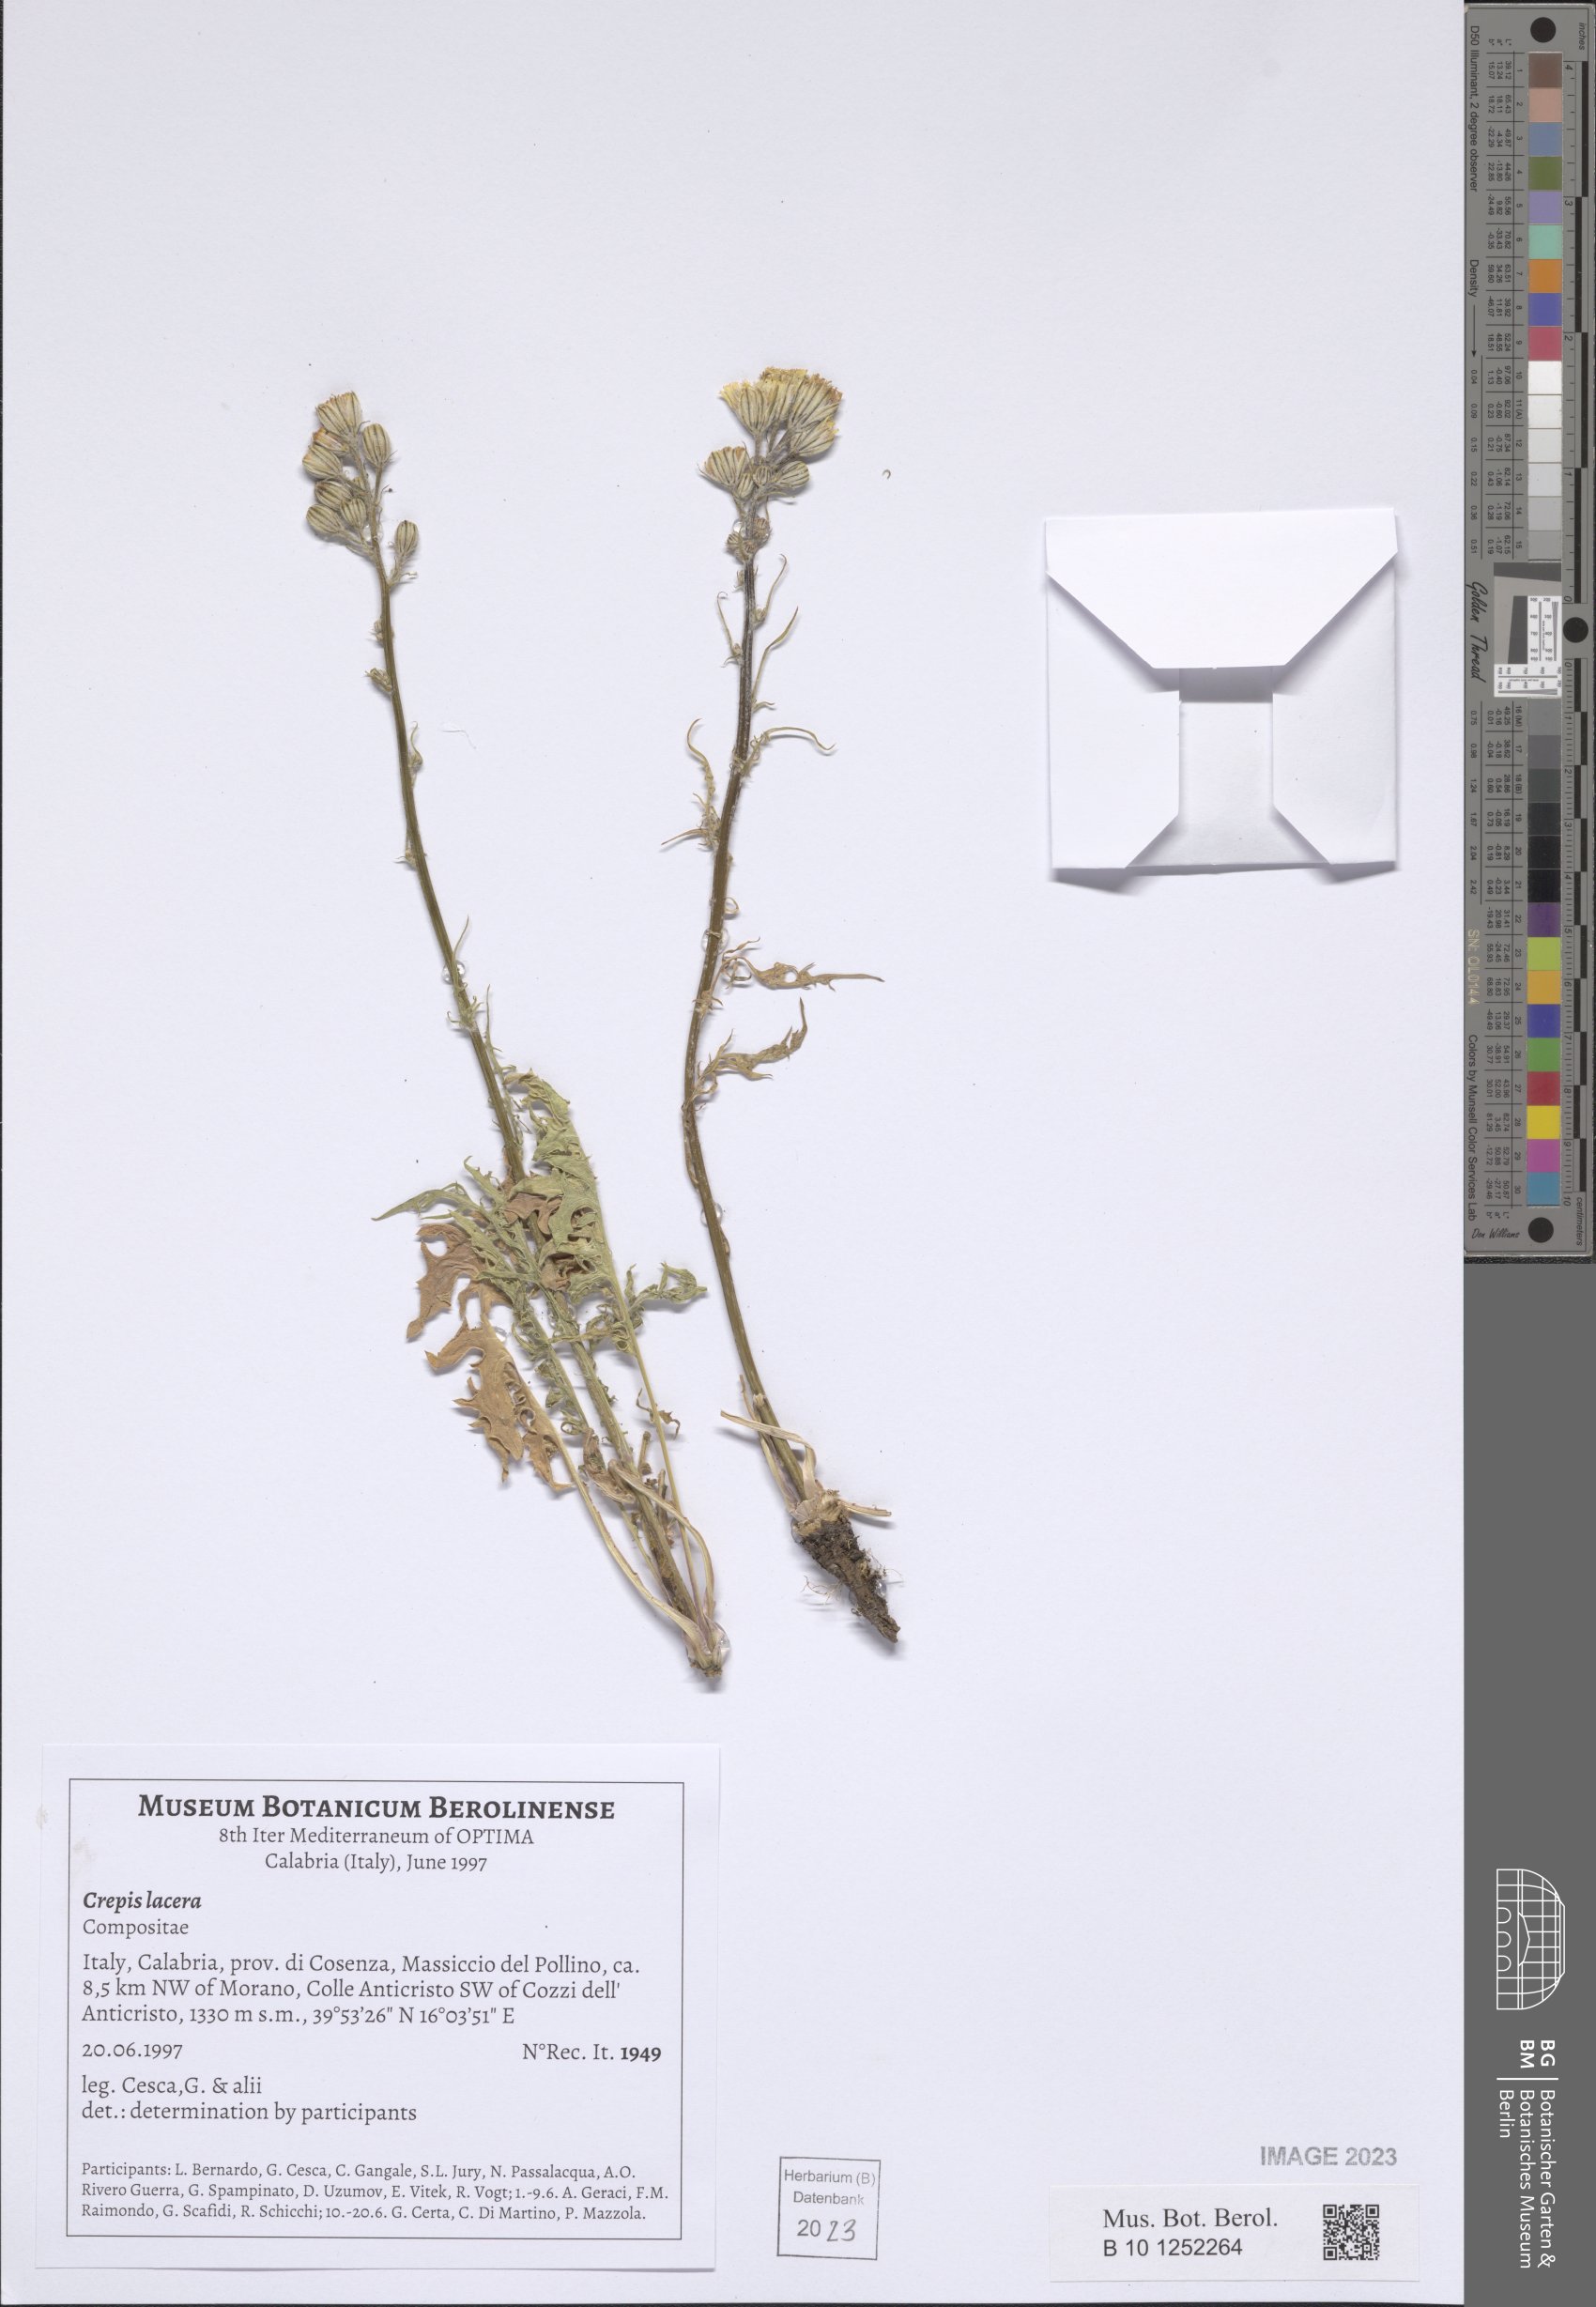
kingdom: Plantae
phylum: Tracheophyta
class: Magnoliopsida
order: Asterales
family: Asteraceae
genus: Crepis
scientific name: Crepis lacera
